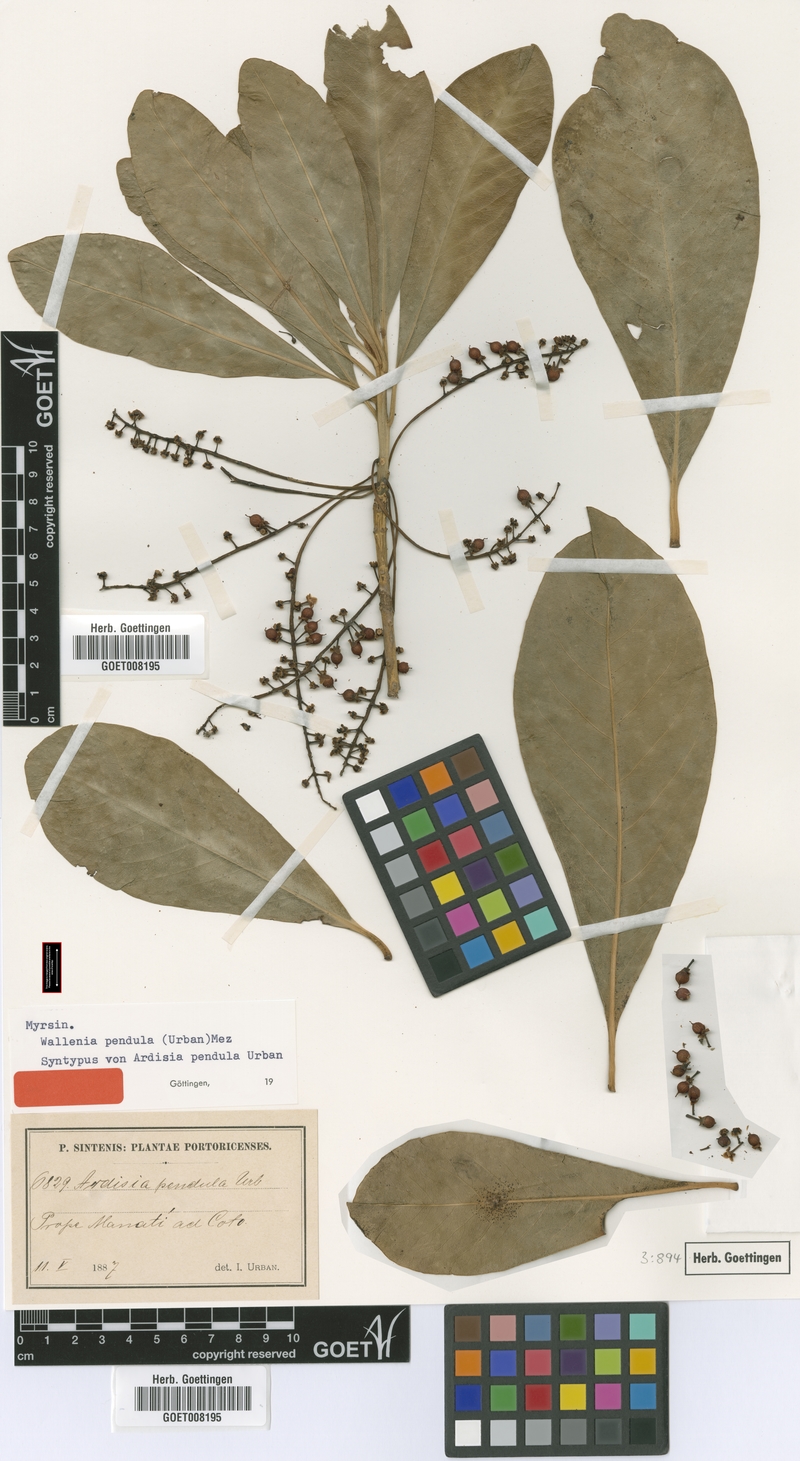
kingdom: Plantae
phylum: Tracheophyta
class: Magnoliopsida
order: Ericales
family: Primulaceae
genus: Wallenia
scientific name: Wallenia lamarckiana
